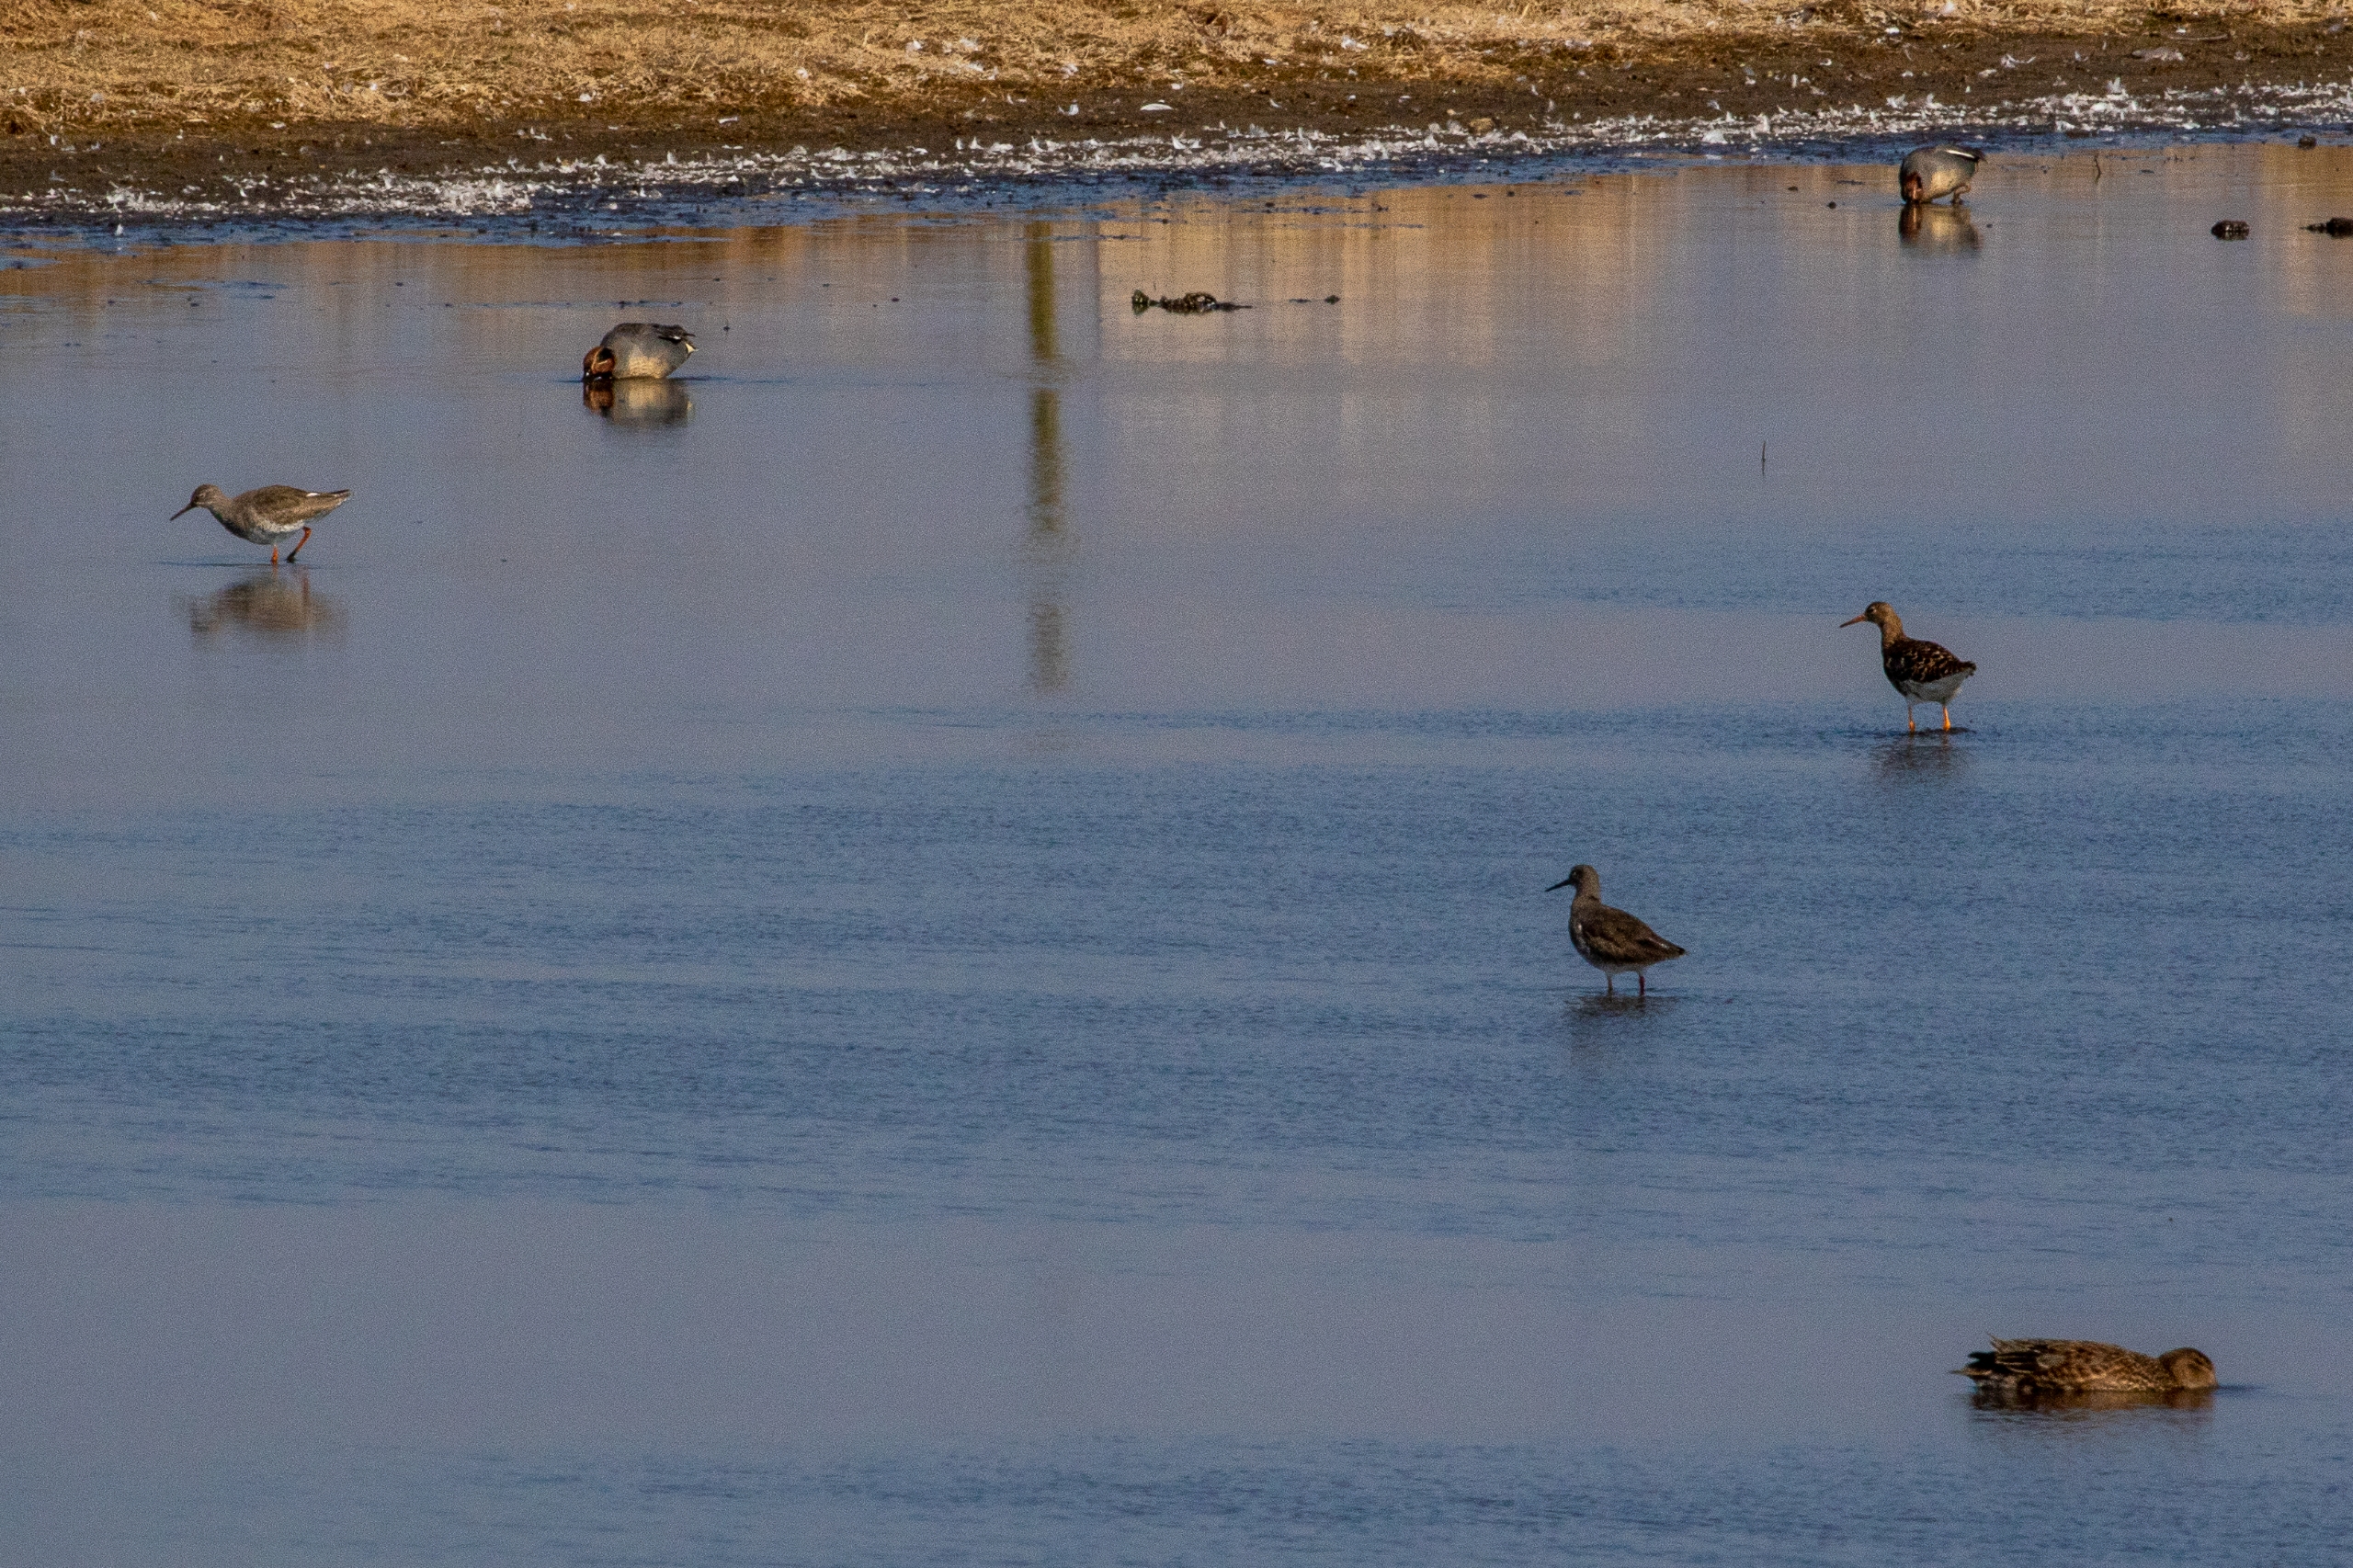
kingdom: Animalia
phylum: Chordata
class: Aves
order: Charadriiformes
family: Scolopacidae
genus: Tringa
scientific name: Tringa totanus
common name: Rødben
